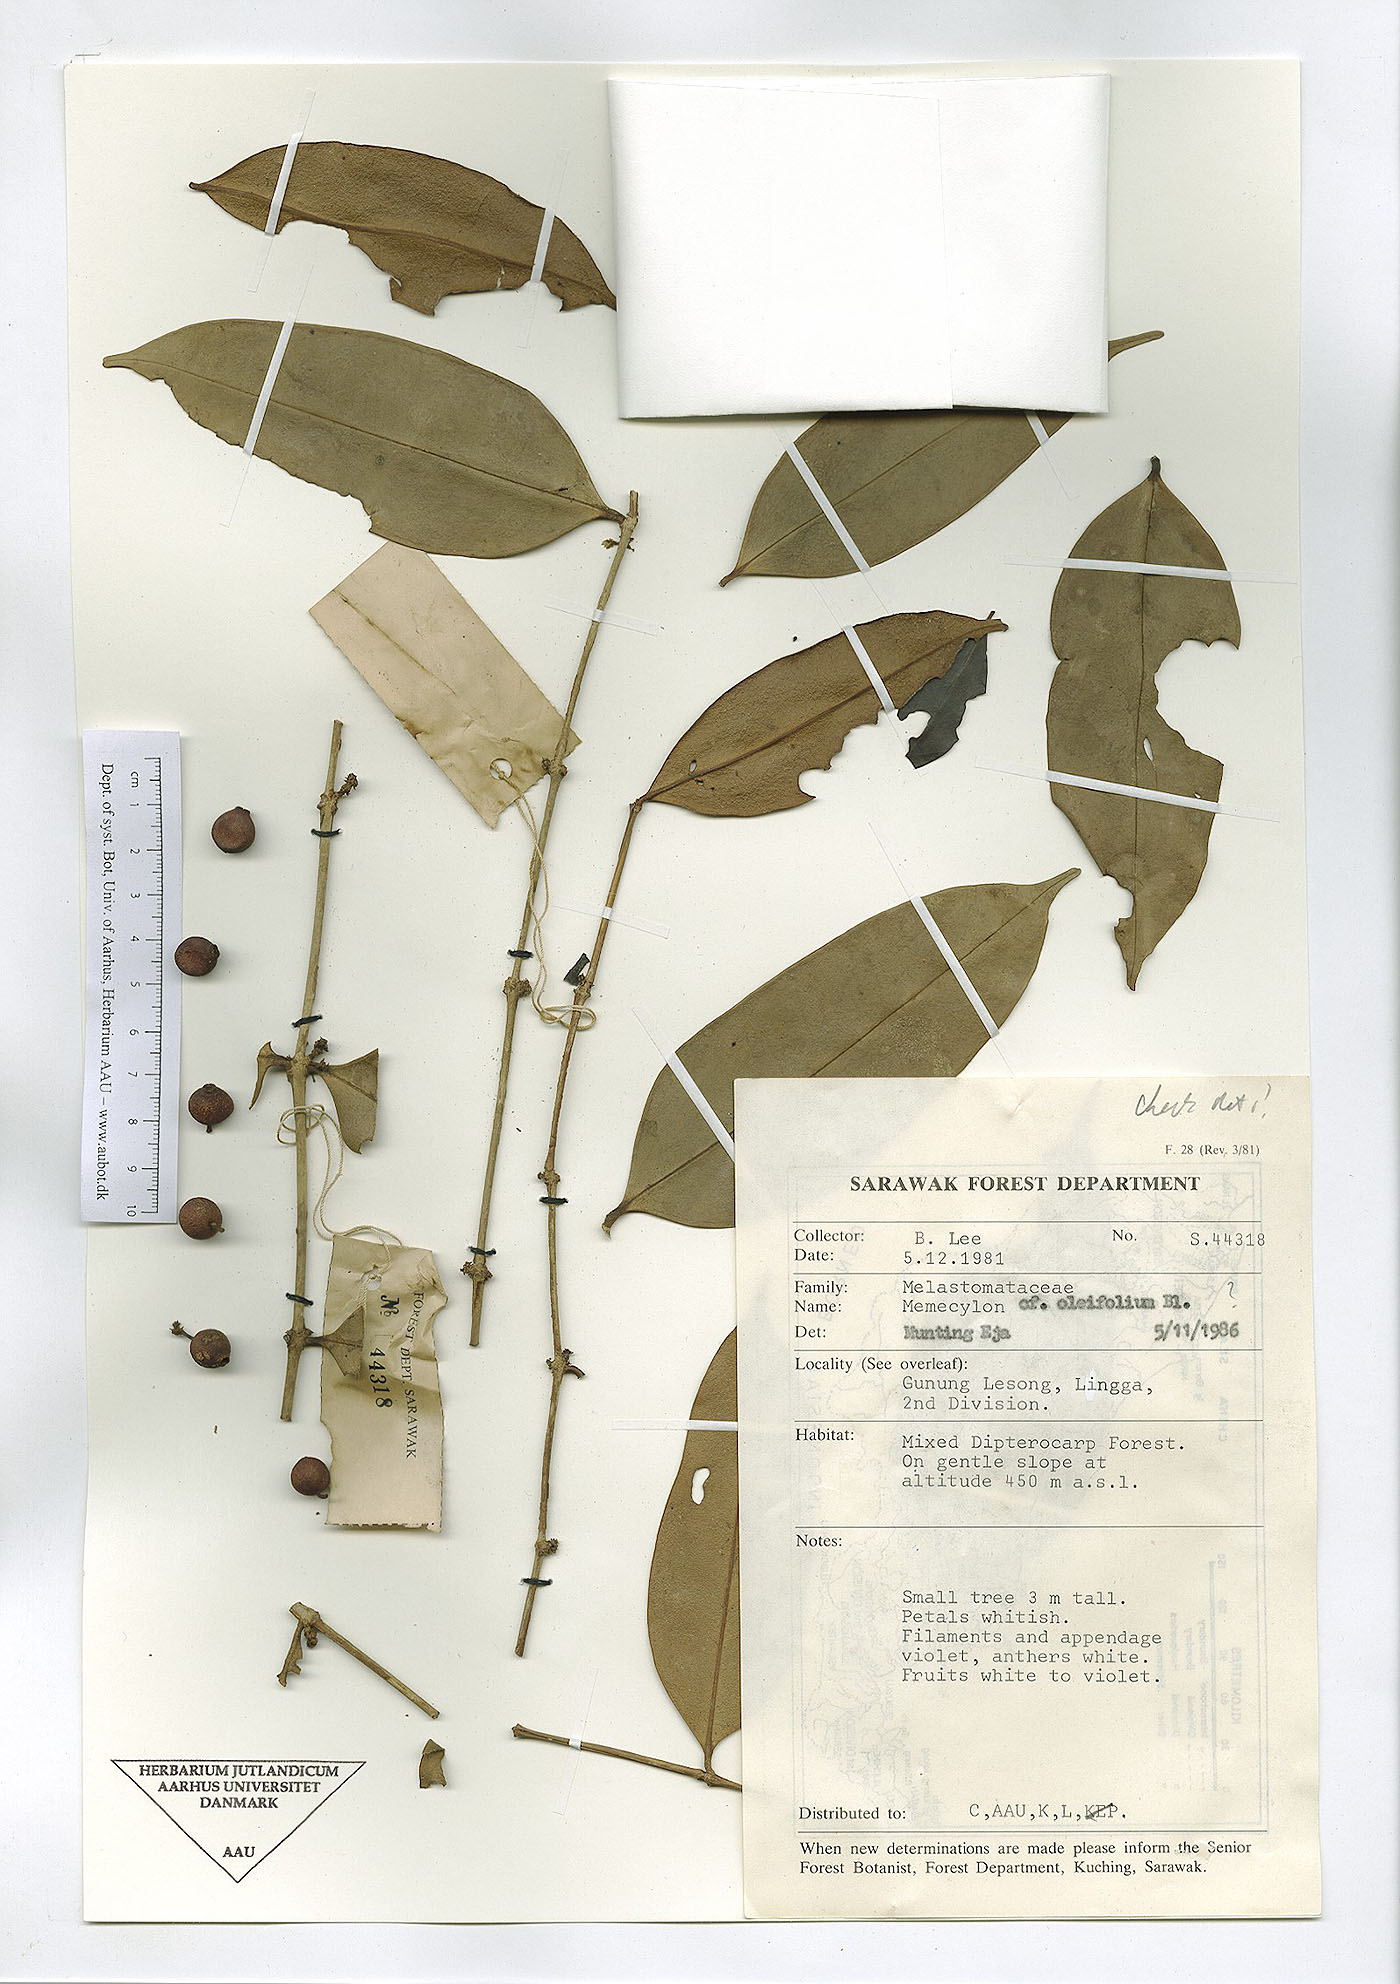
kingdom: Plantae
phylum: Tracheophyta
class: Magnoliopsida
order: Myrtales
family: Melastomataceae
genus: Memecylon
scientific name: Memecylon oleifolium
